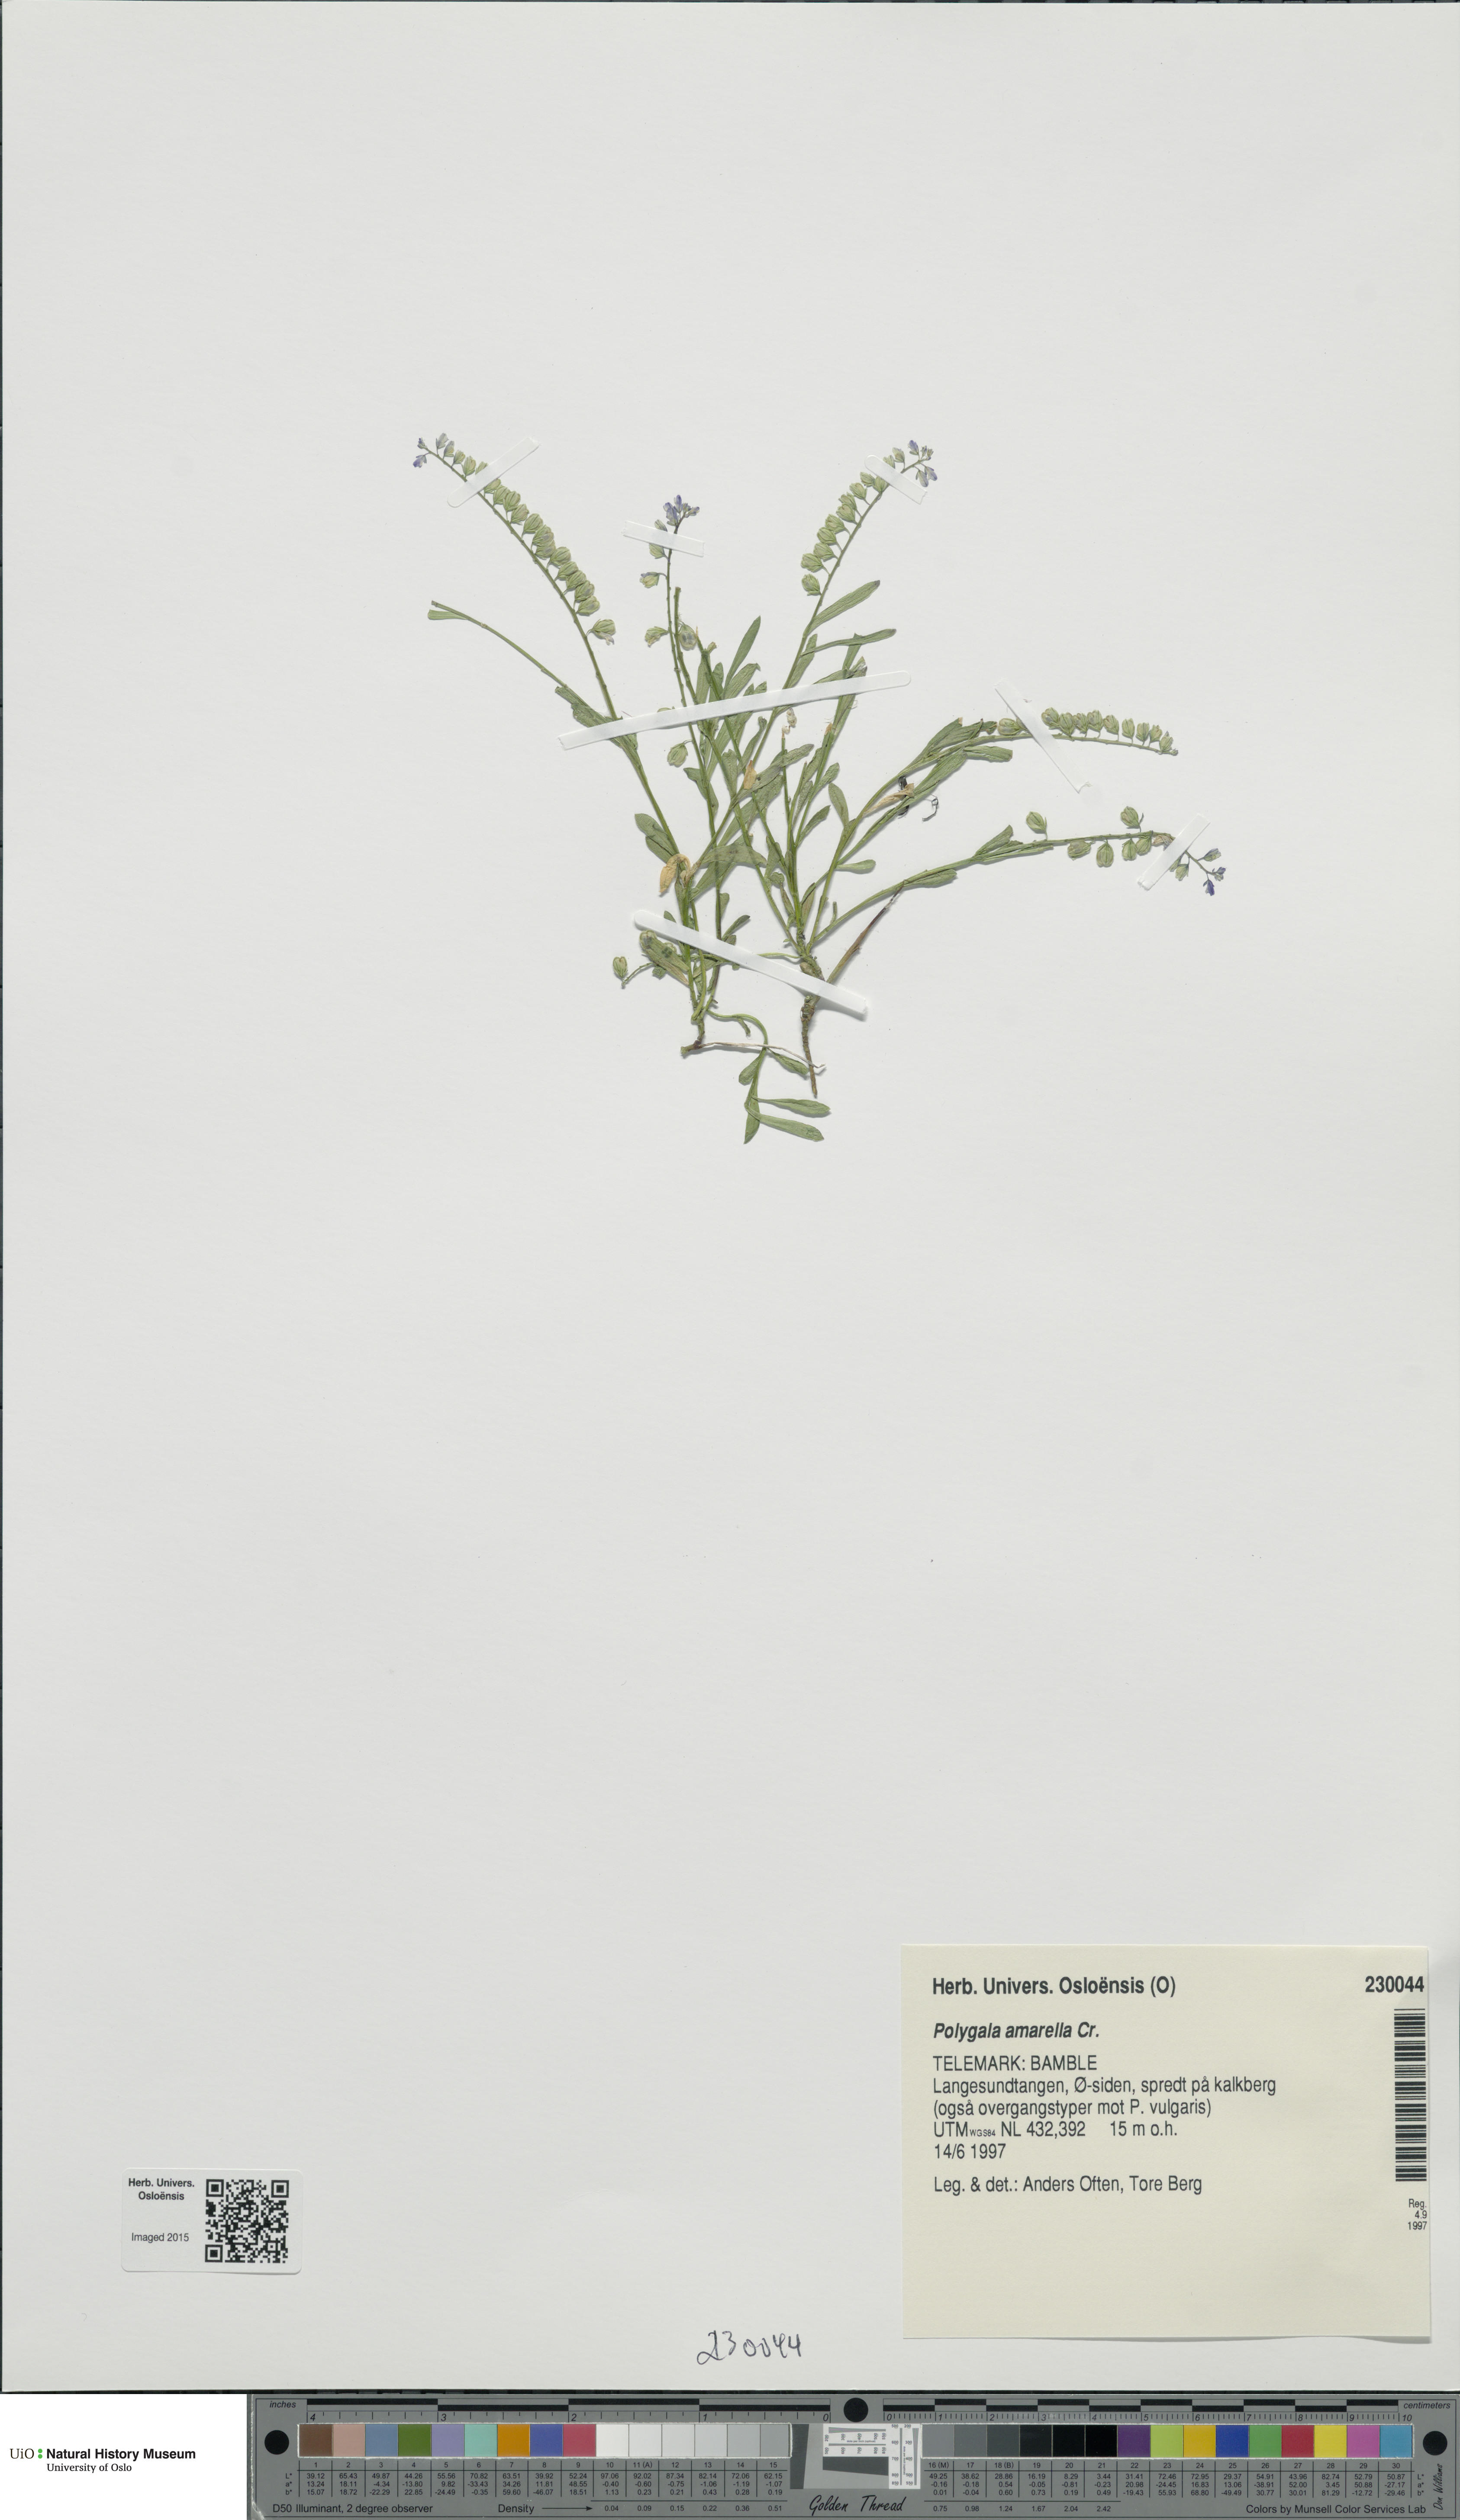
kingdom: Plantae
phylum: Tracheophyta
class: Magnoliopsida
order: Fabales
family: Polygalaceae
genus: Polygala
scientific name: Polygala amarella
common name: Dwarf milkwort
